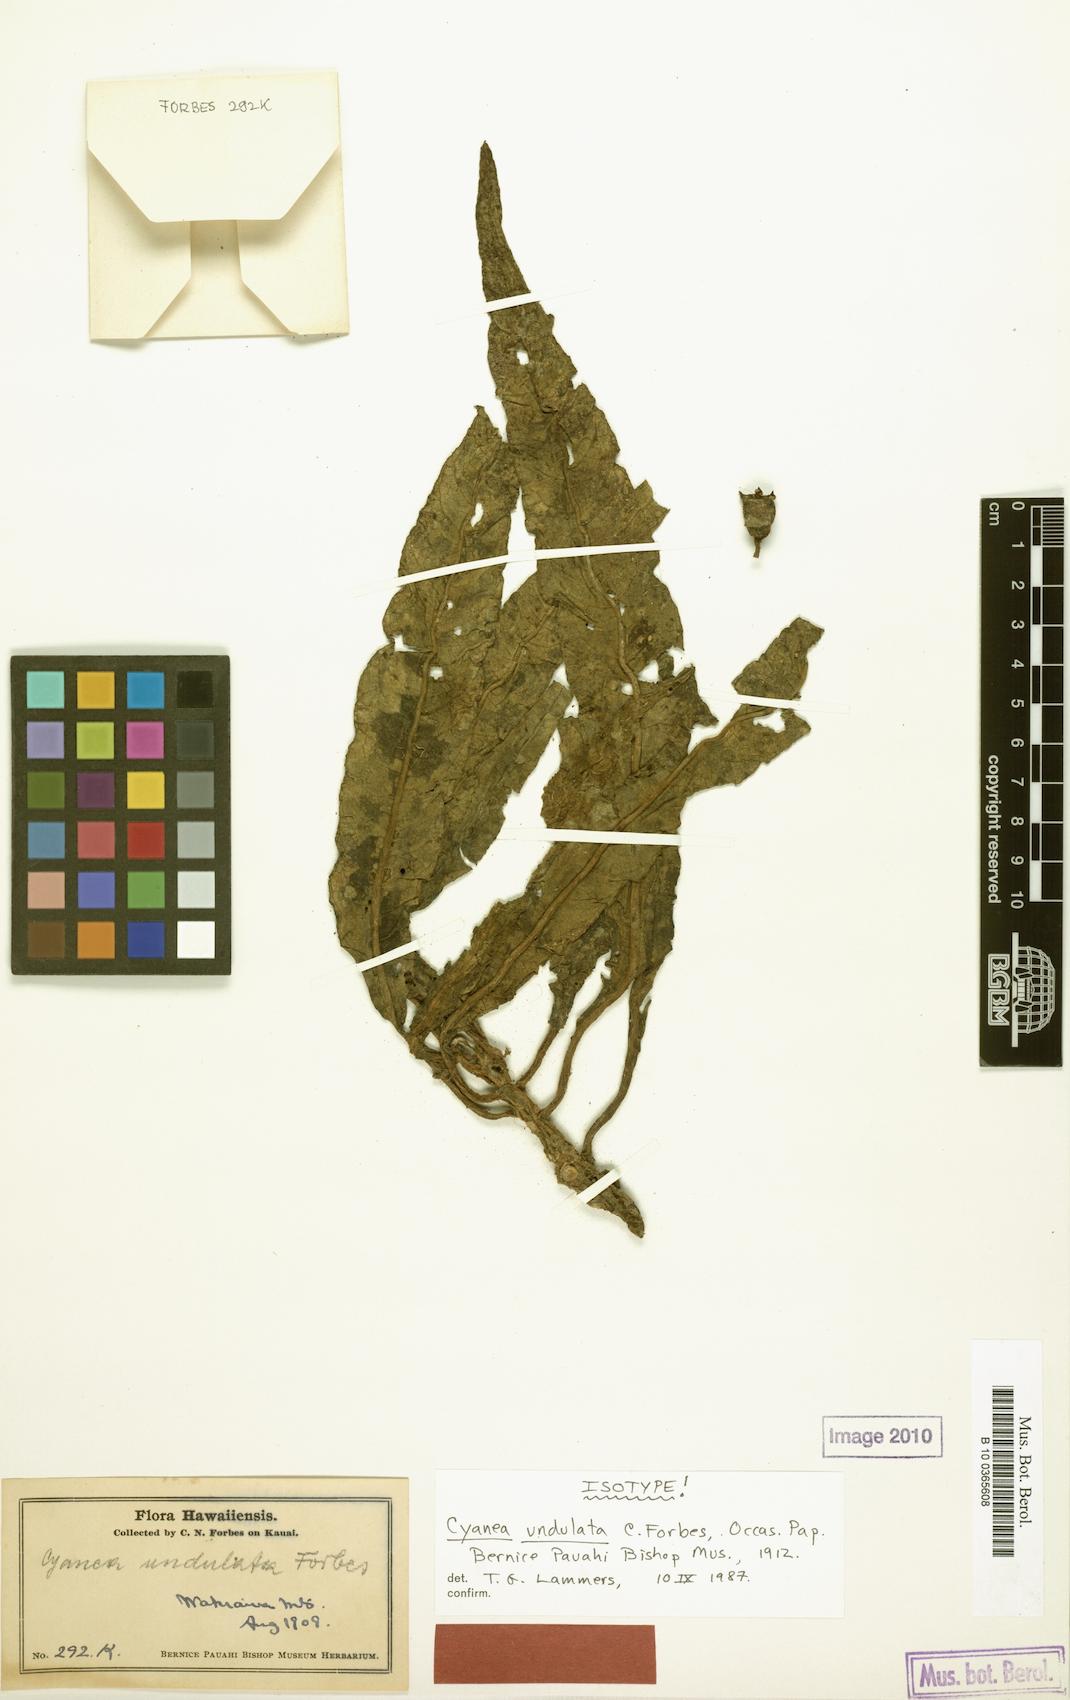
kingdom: Plantae
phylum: Tracheophyta
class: Magnoliopsida
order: Asterales
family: Campanulaceae
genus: Cyanea
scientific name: Cyanea undulata
